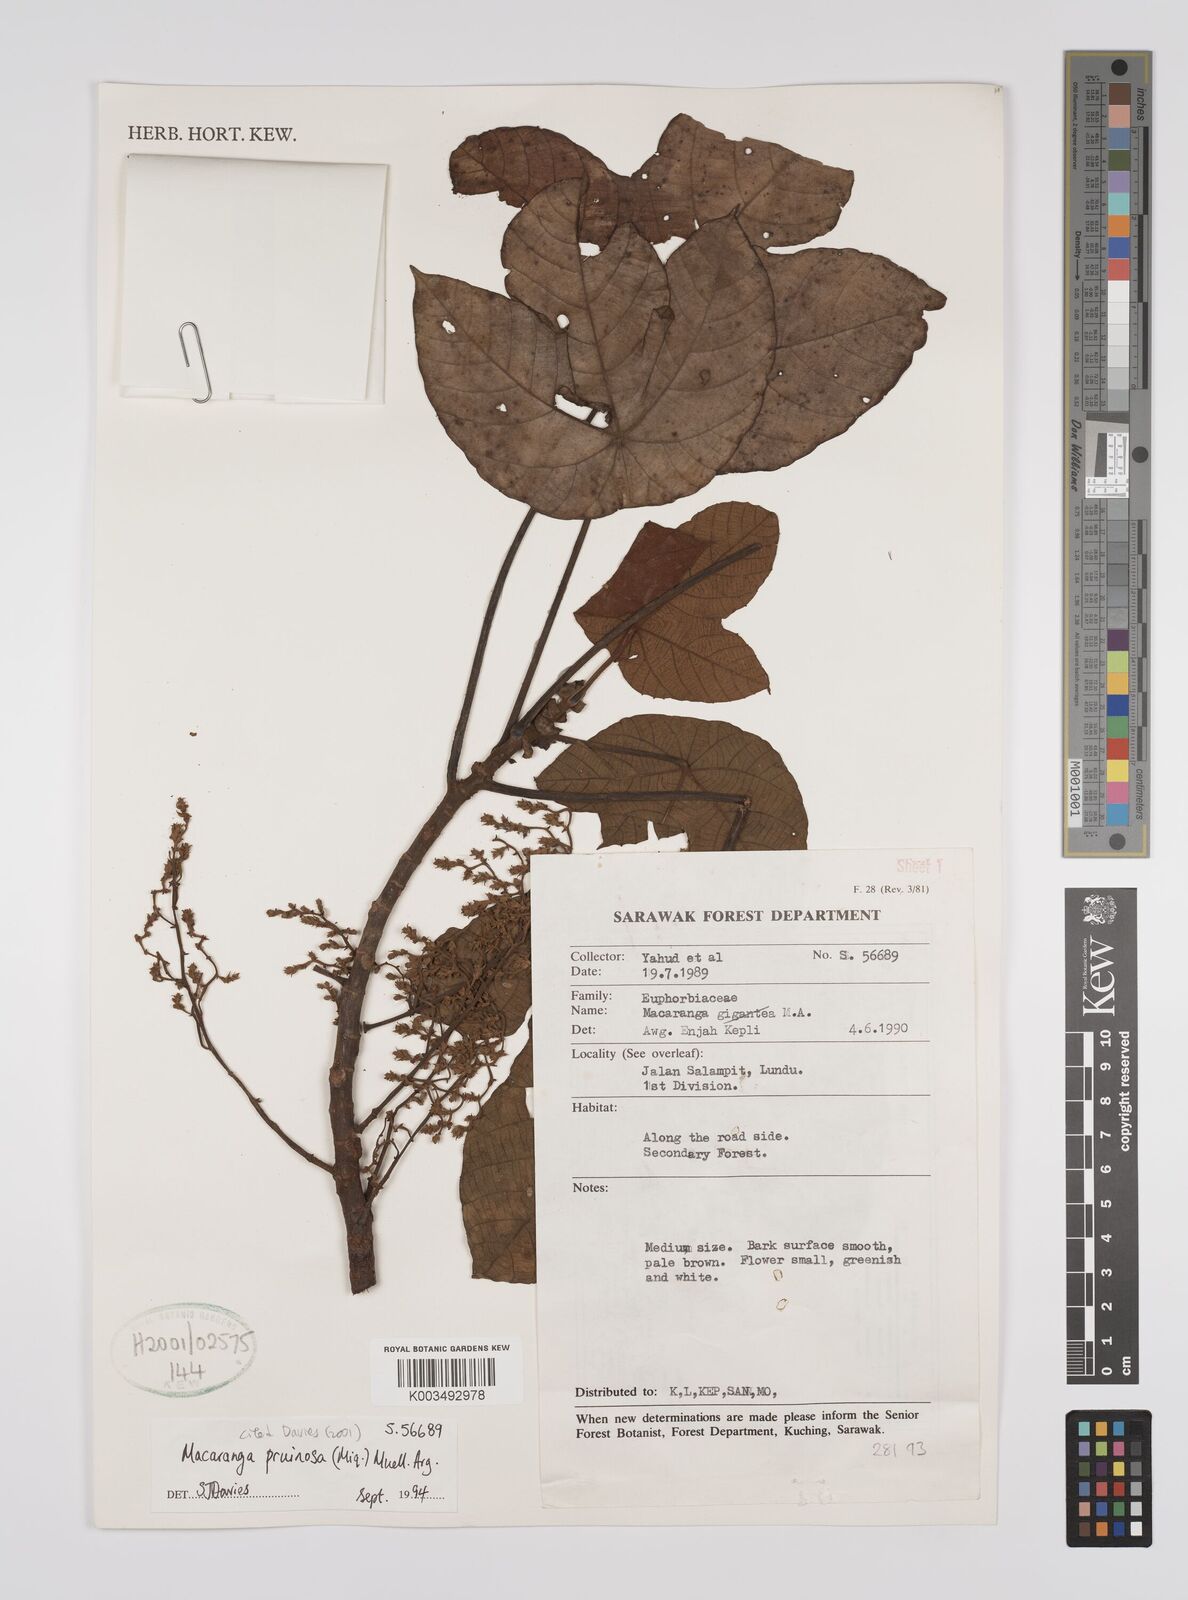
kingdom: Plantae
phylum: Tracheophyta
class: Magnoliopsida
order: Malpighiales
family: Euphorbiaceae
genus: Macaranga
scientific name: Macaranga pruinosa
